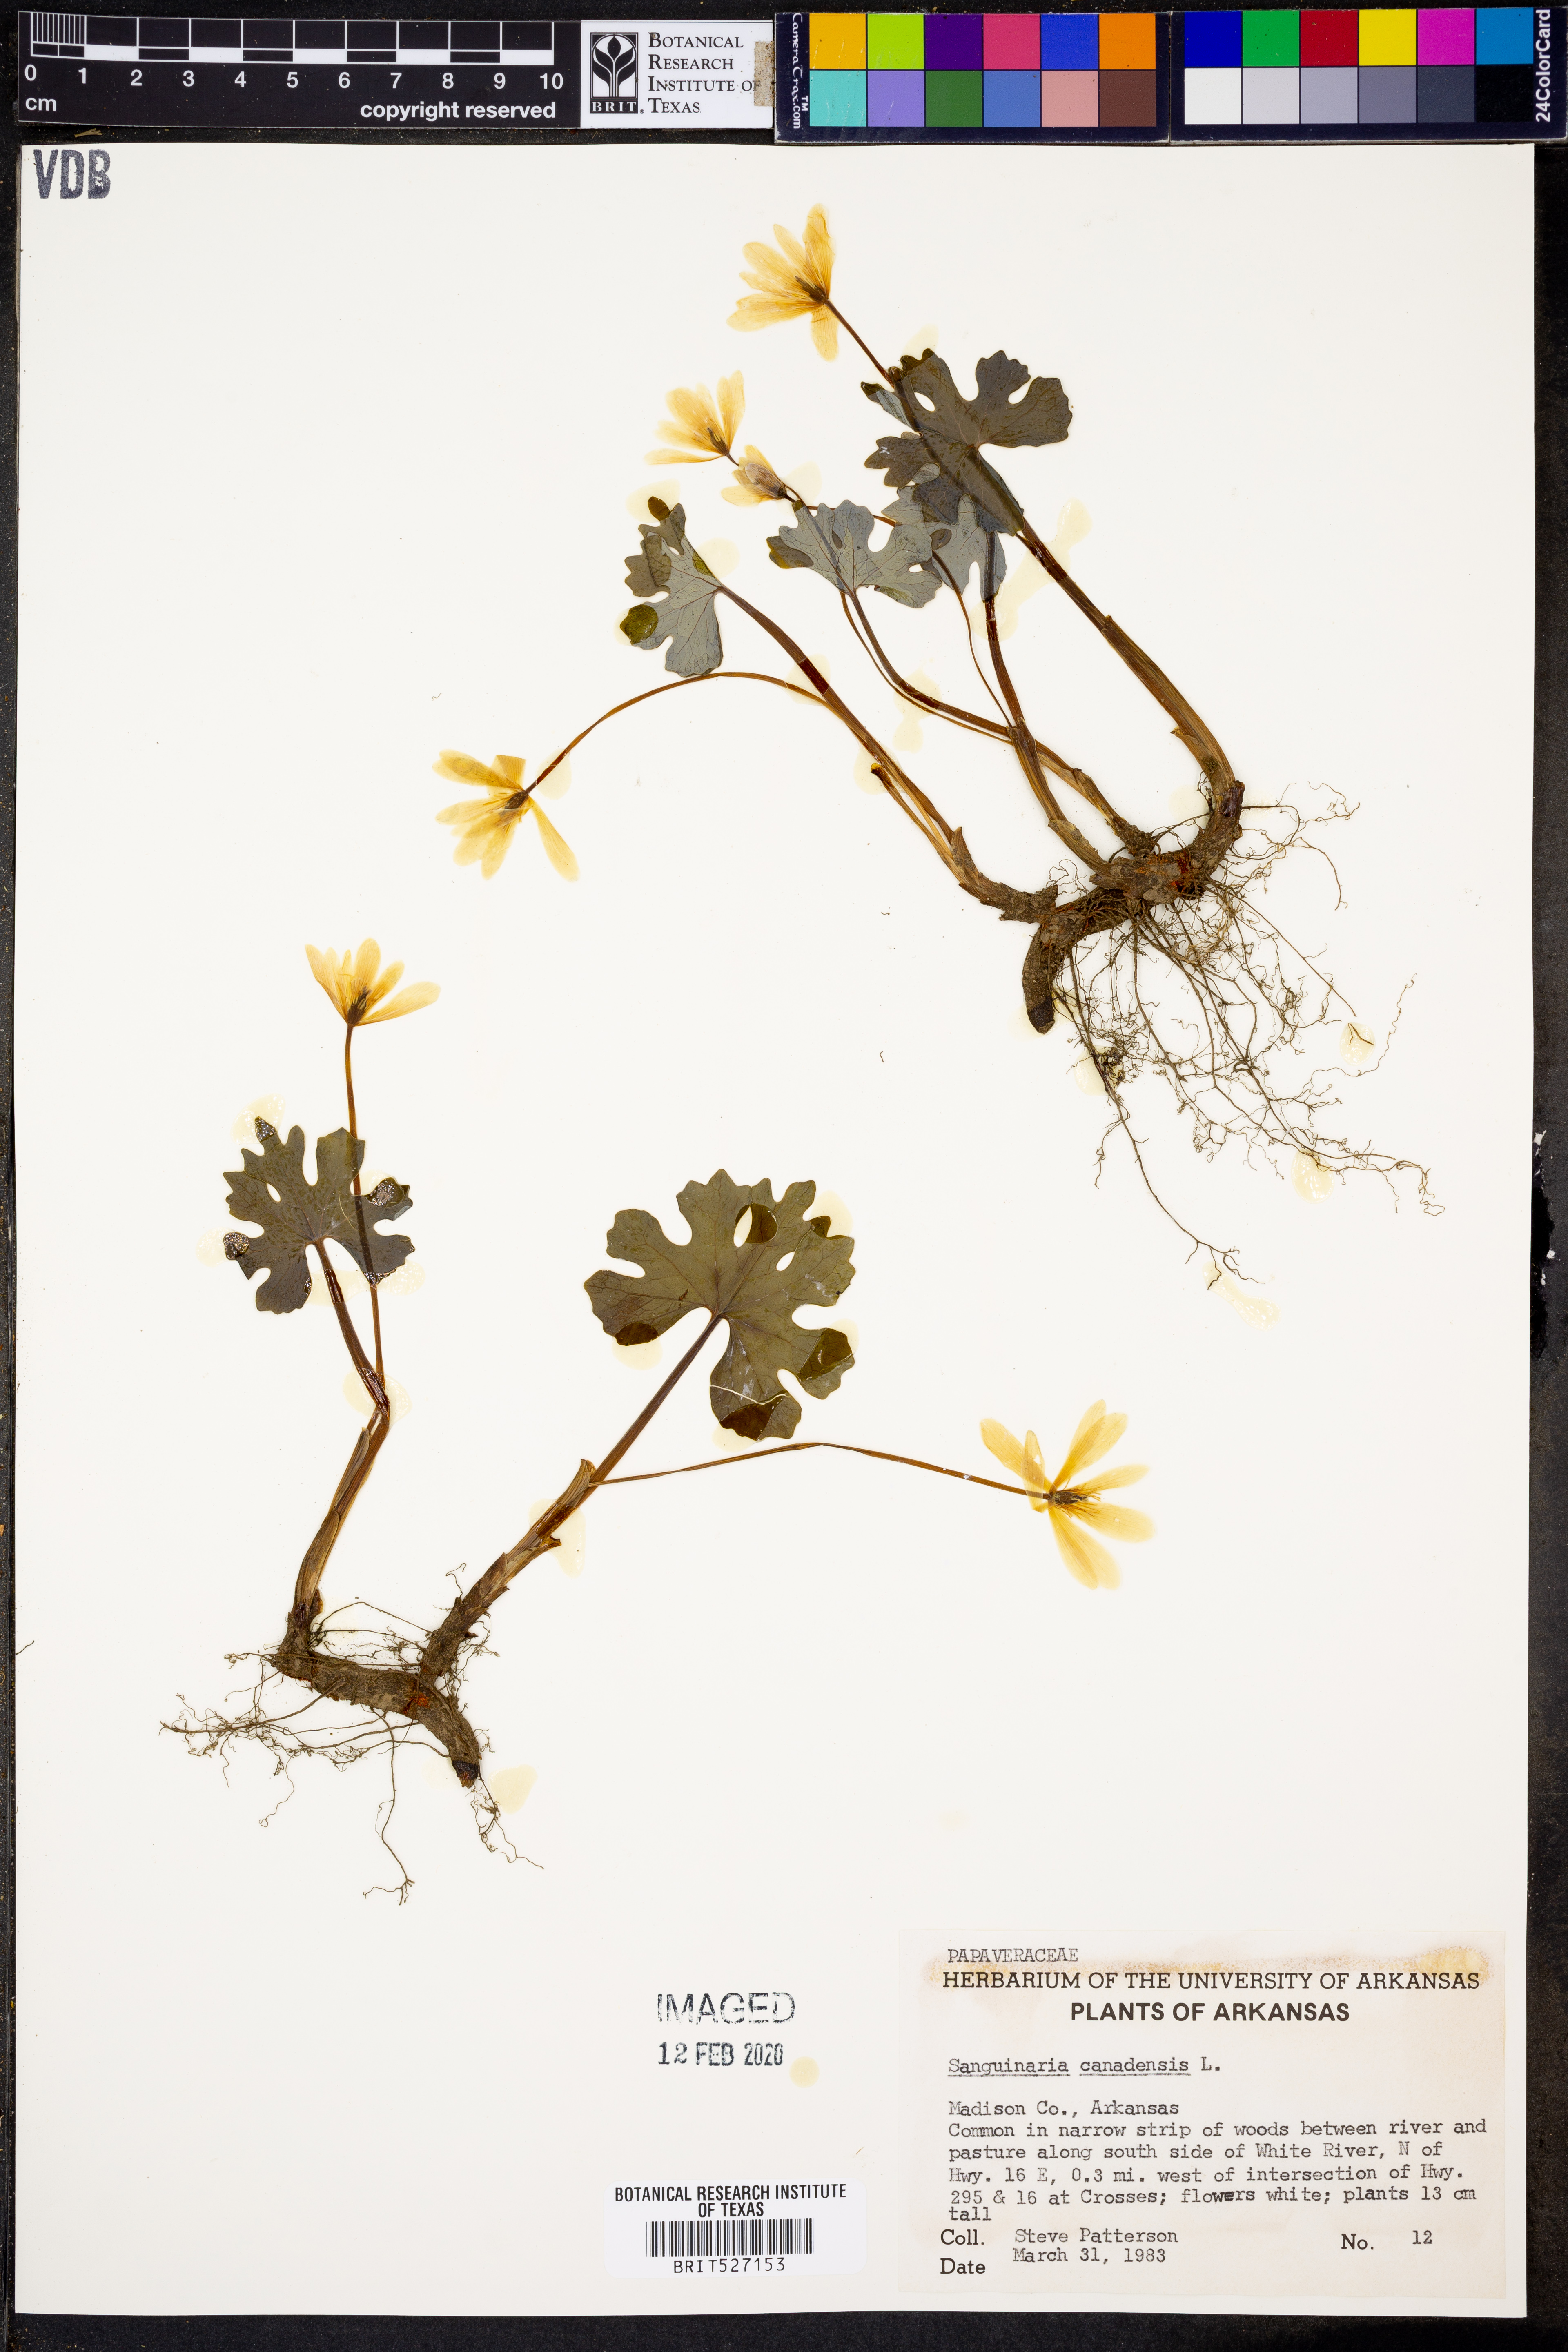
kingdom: Plantae
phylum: Tracheophyta
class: Magnoliopsida
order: Ranunculales
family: Papaveraceae
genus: Sanguinaria
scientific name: Sanguinaria canadensis
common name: Bloodroot
